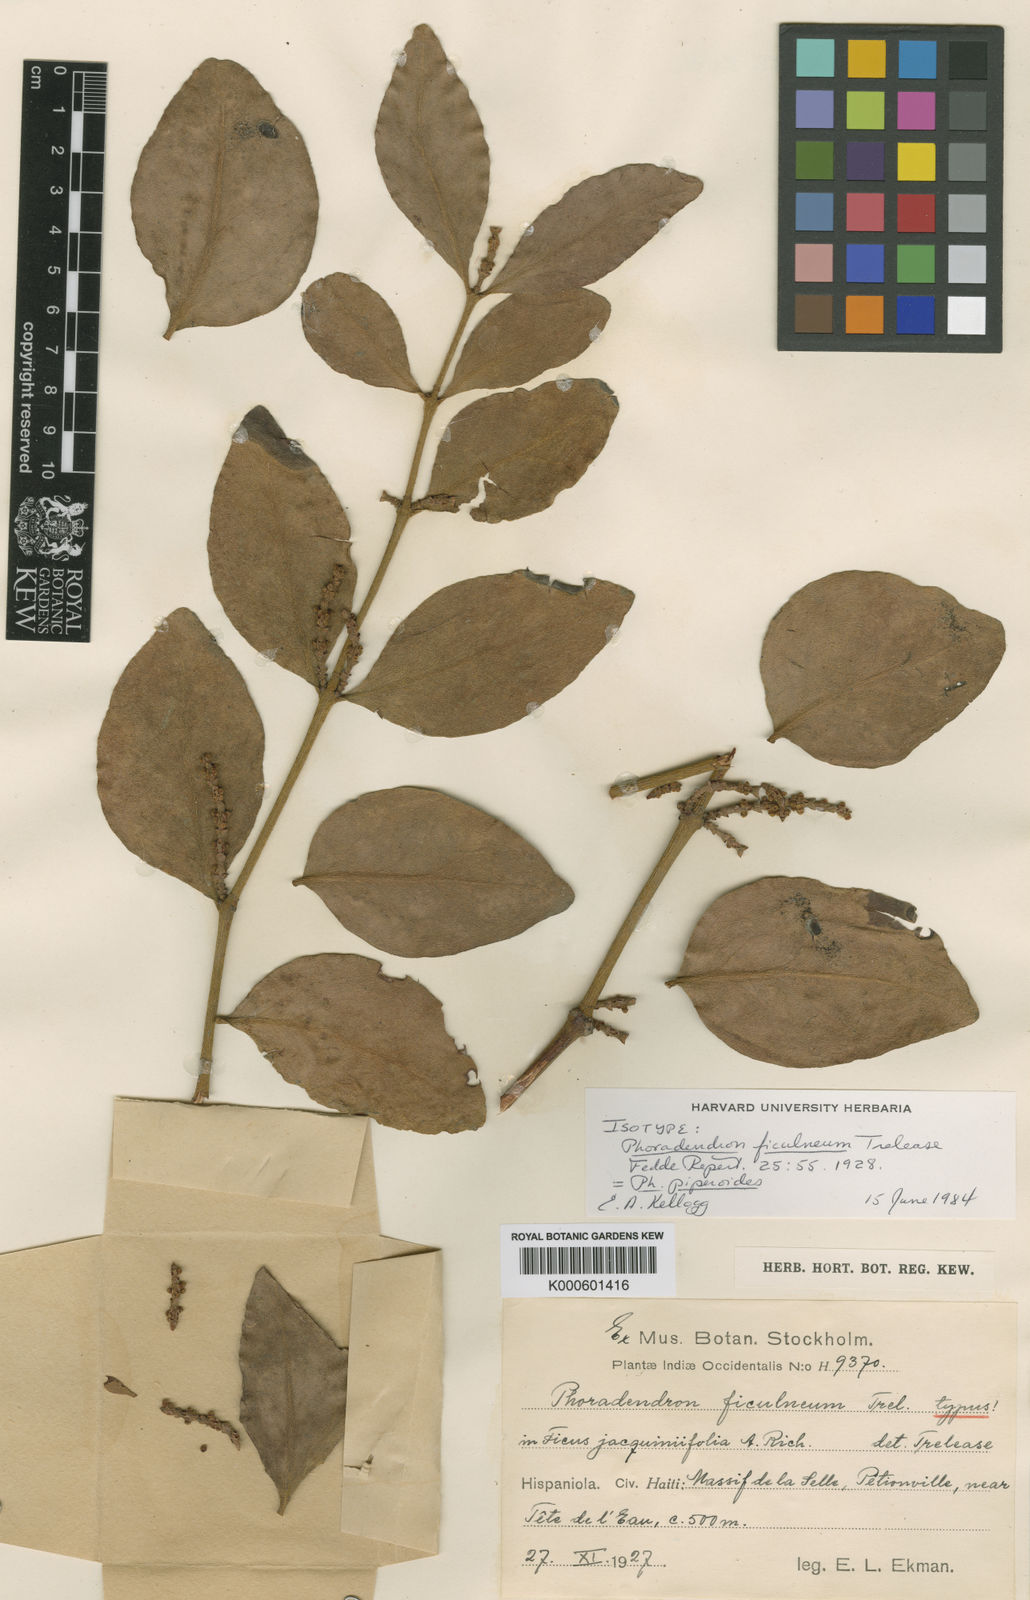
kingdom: Plantae
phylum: Tracheophyta
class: Magnoliopsida
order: Santalales
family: Viscaceae
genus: Phoradendron
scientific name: Phoradendron piperoides
